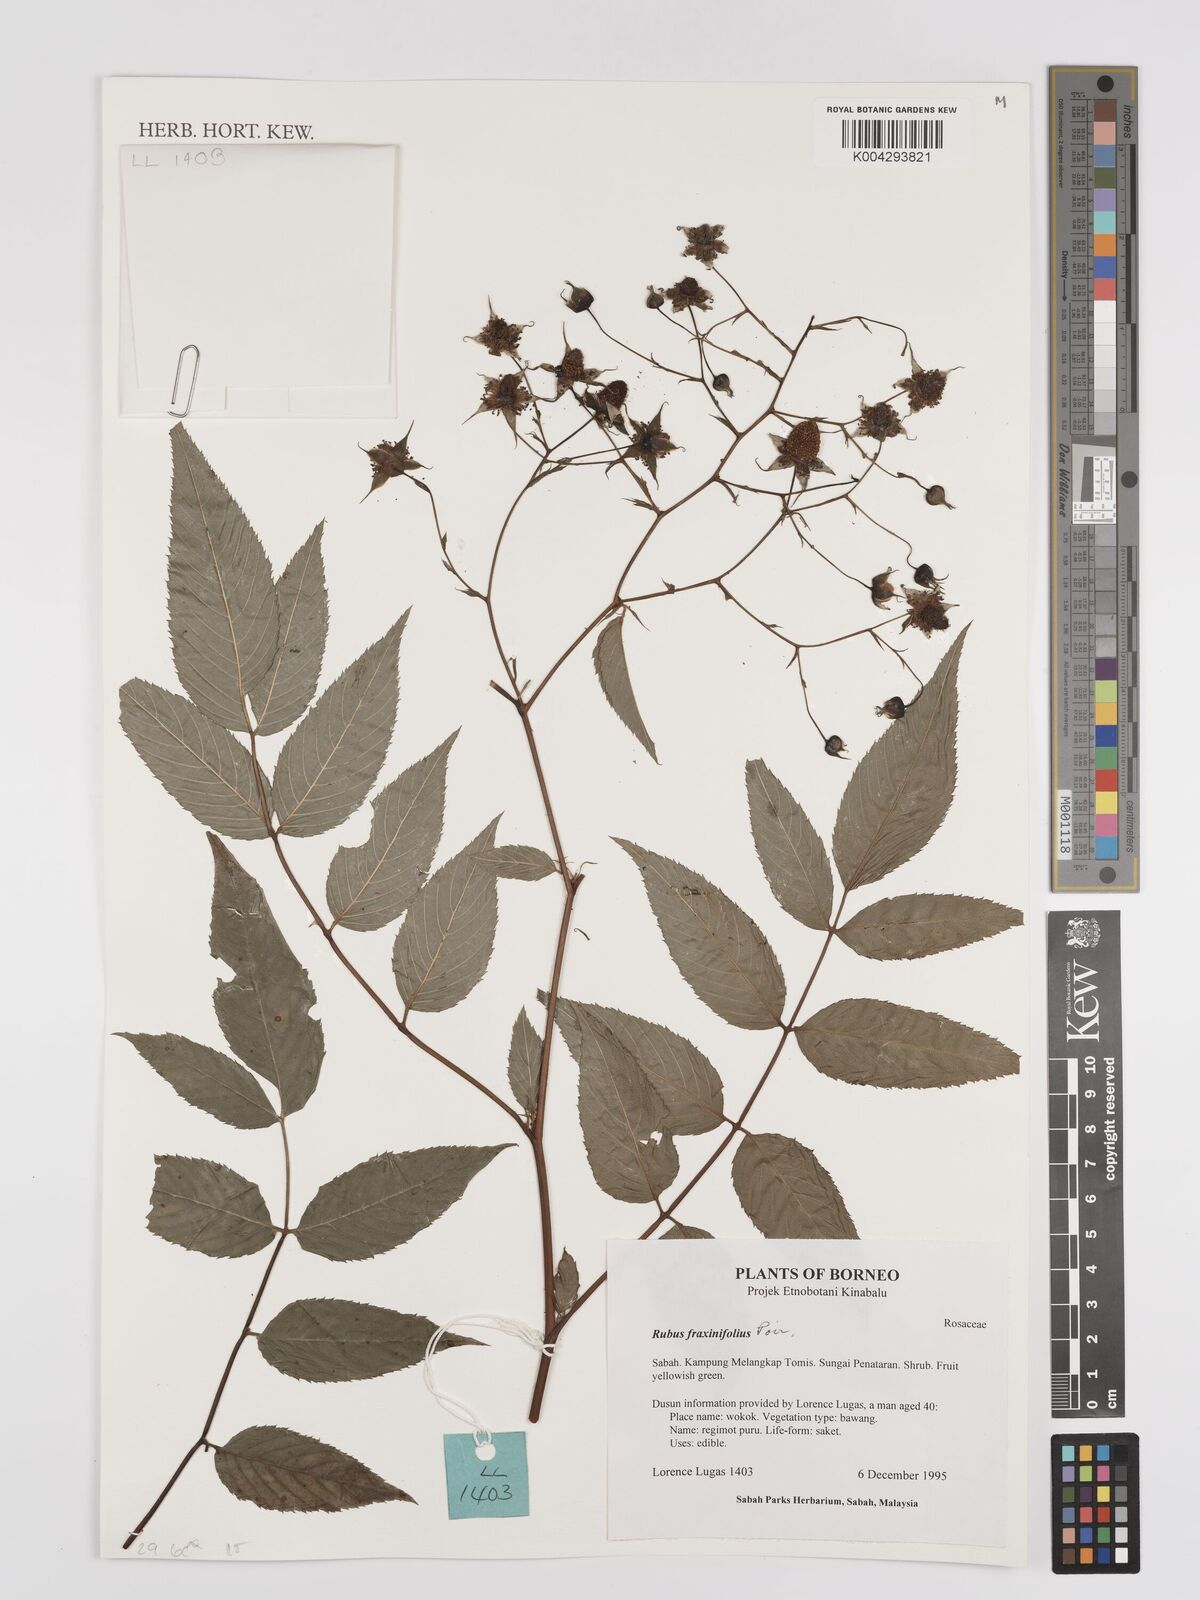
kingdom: Plantae
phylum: Tracheophyta
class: Magnoliopsida
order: Rosales
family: Rosaceae
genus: Rubus
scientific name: Rubus fraxinifolius
